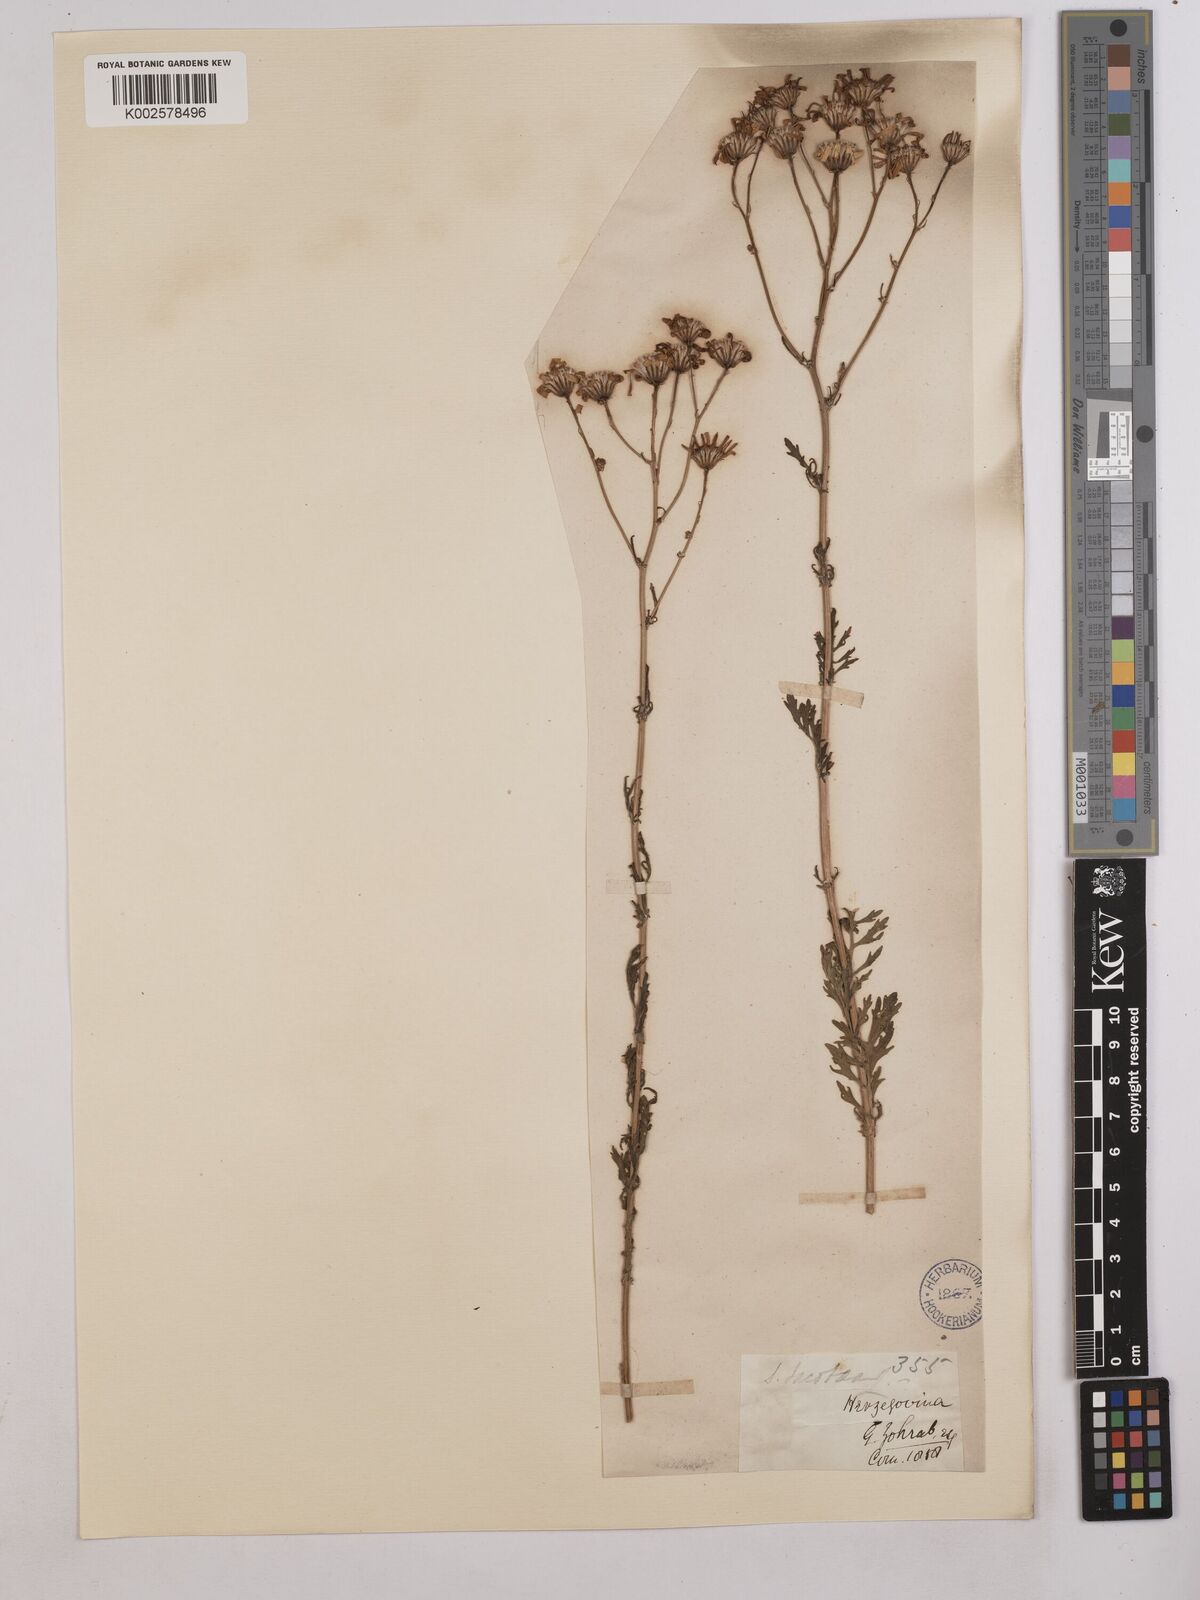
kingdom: Plantae
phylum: Tracheophyta
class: Magnoliopsida
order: Asterales
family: Asteraceae
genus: Jacobaea
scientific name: Jacobaea vulgaris
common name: Stinking willie
